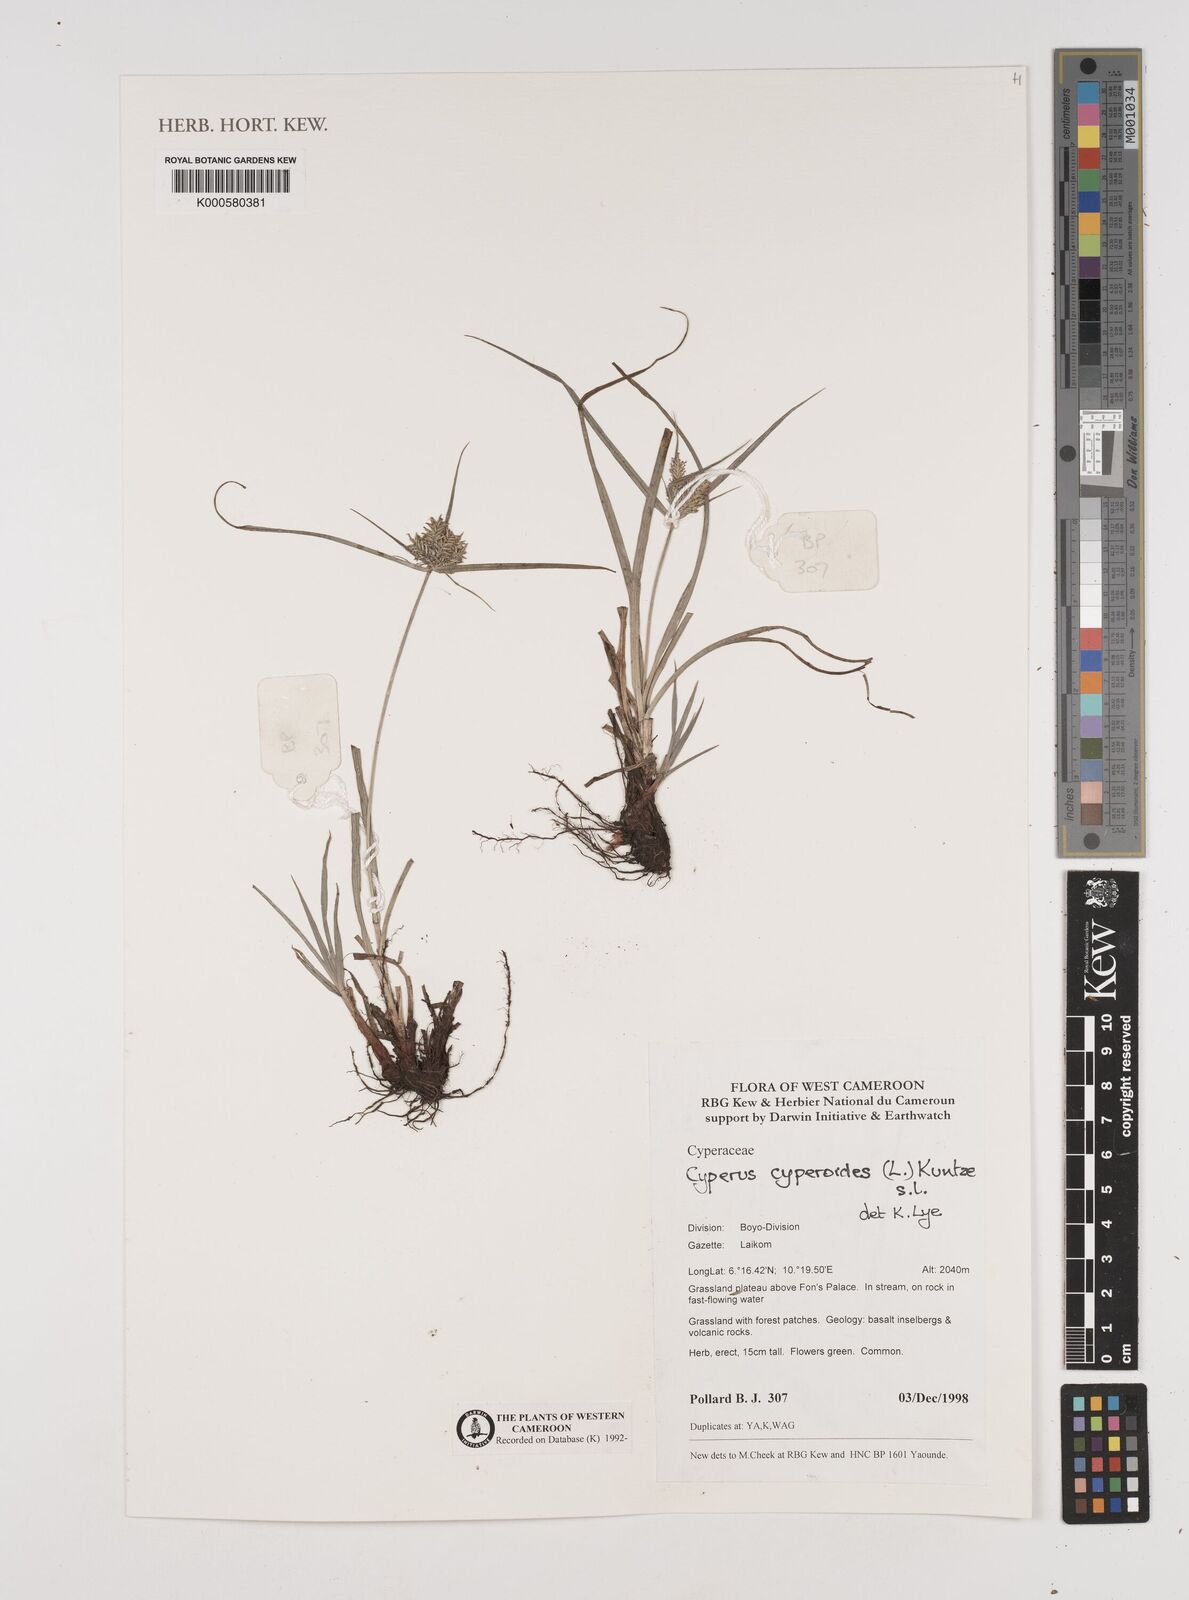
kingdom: Plantae
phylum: Tracheophyta
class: Liliopsida
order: Poales
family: Cyperaceae
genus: Cyperus
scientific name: Cyperus cyperoides
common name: Pacific island flat sedge
